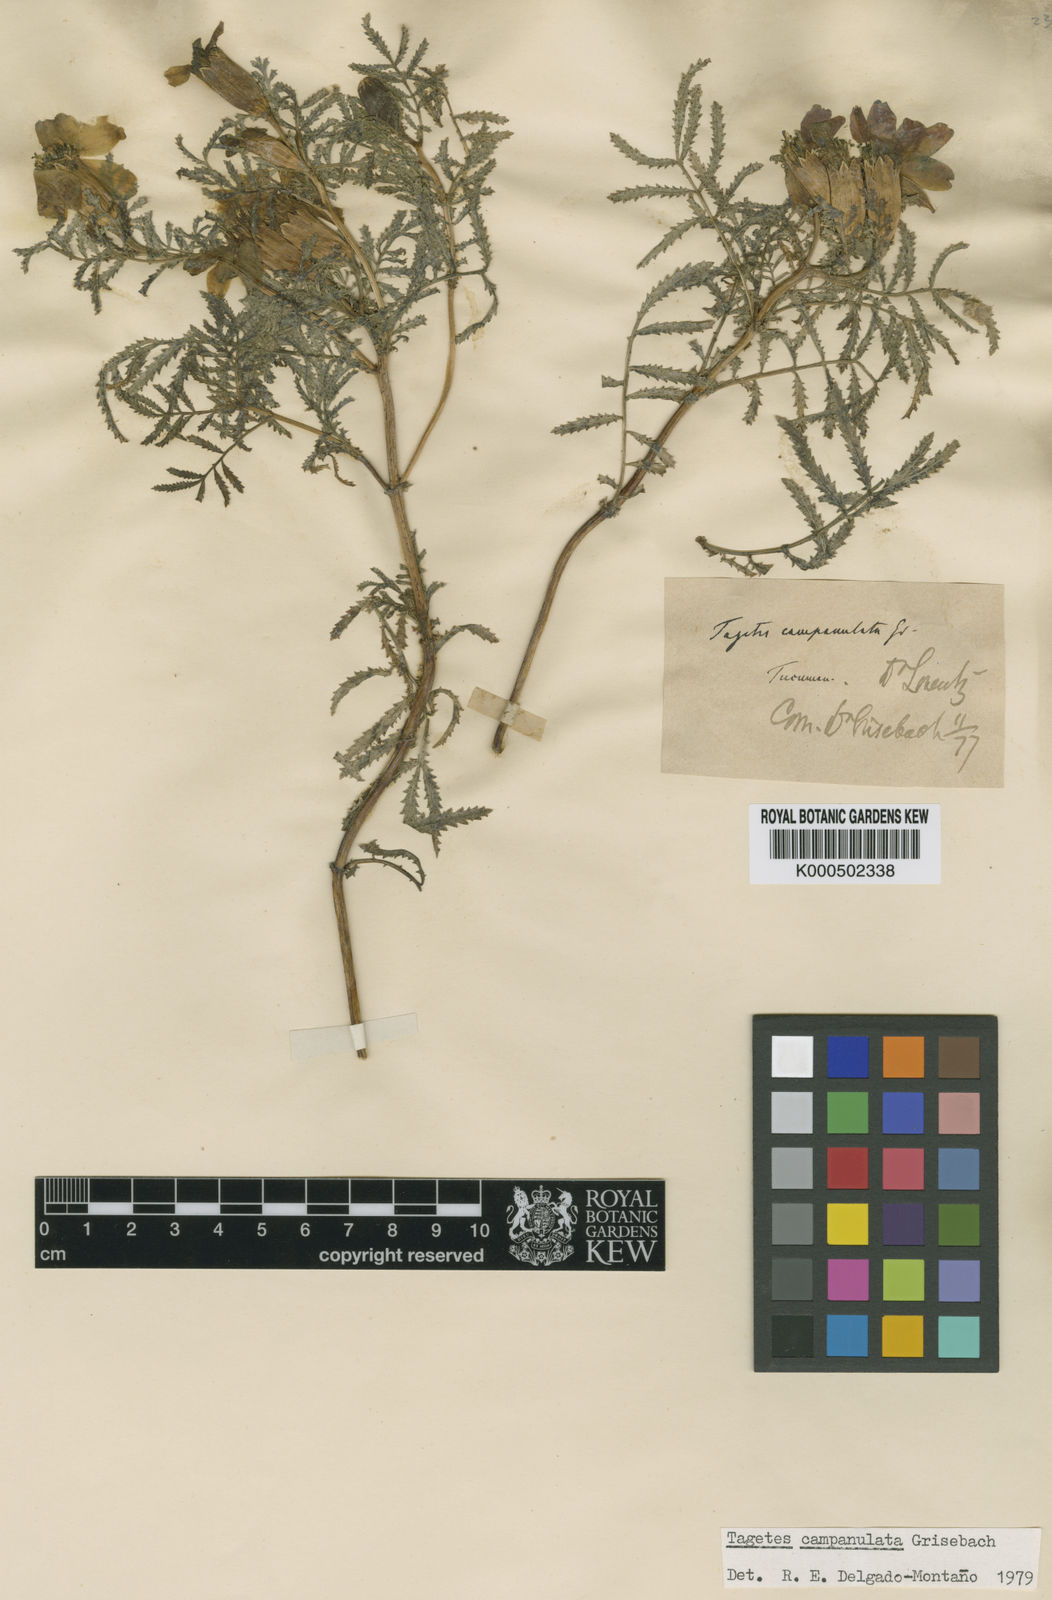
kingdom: Plantae
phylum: Tracheophyta
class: Magnoliopsida
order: Asterales
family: Asteraceae
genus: Tagetes
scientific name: Tagetes campanulata
